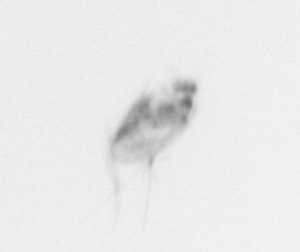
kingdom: Animalia
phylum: Arthropoda
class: Copepoda
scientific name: Copepoda
